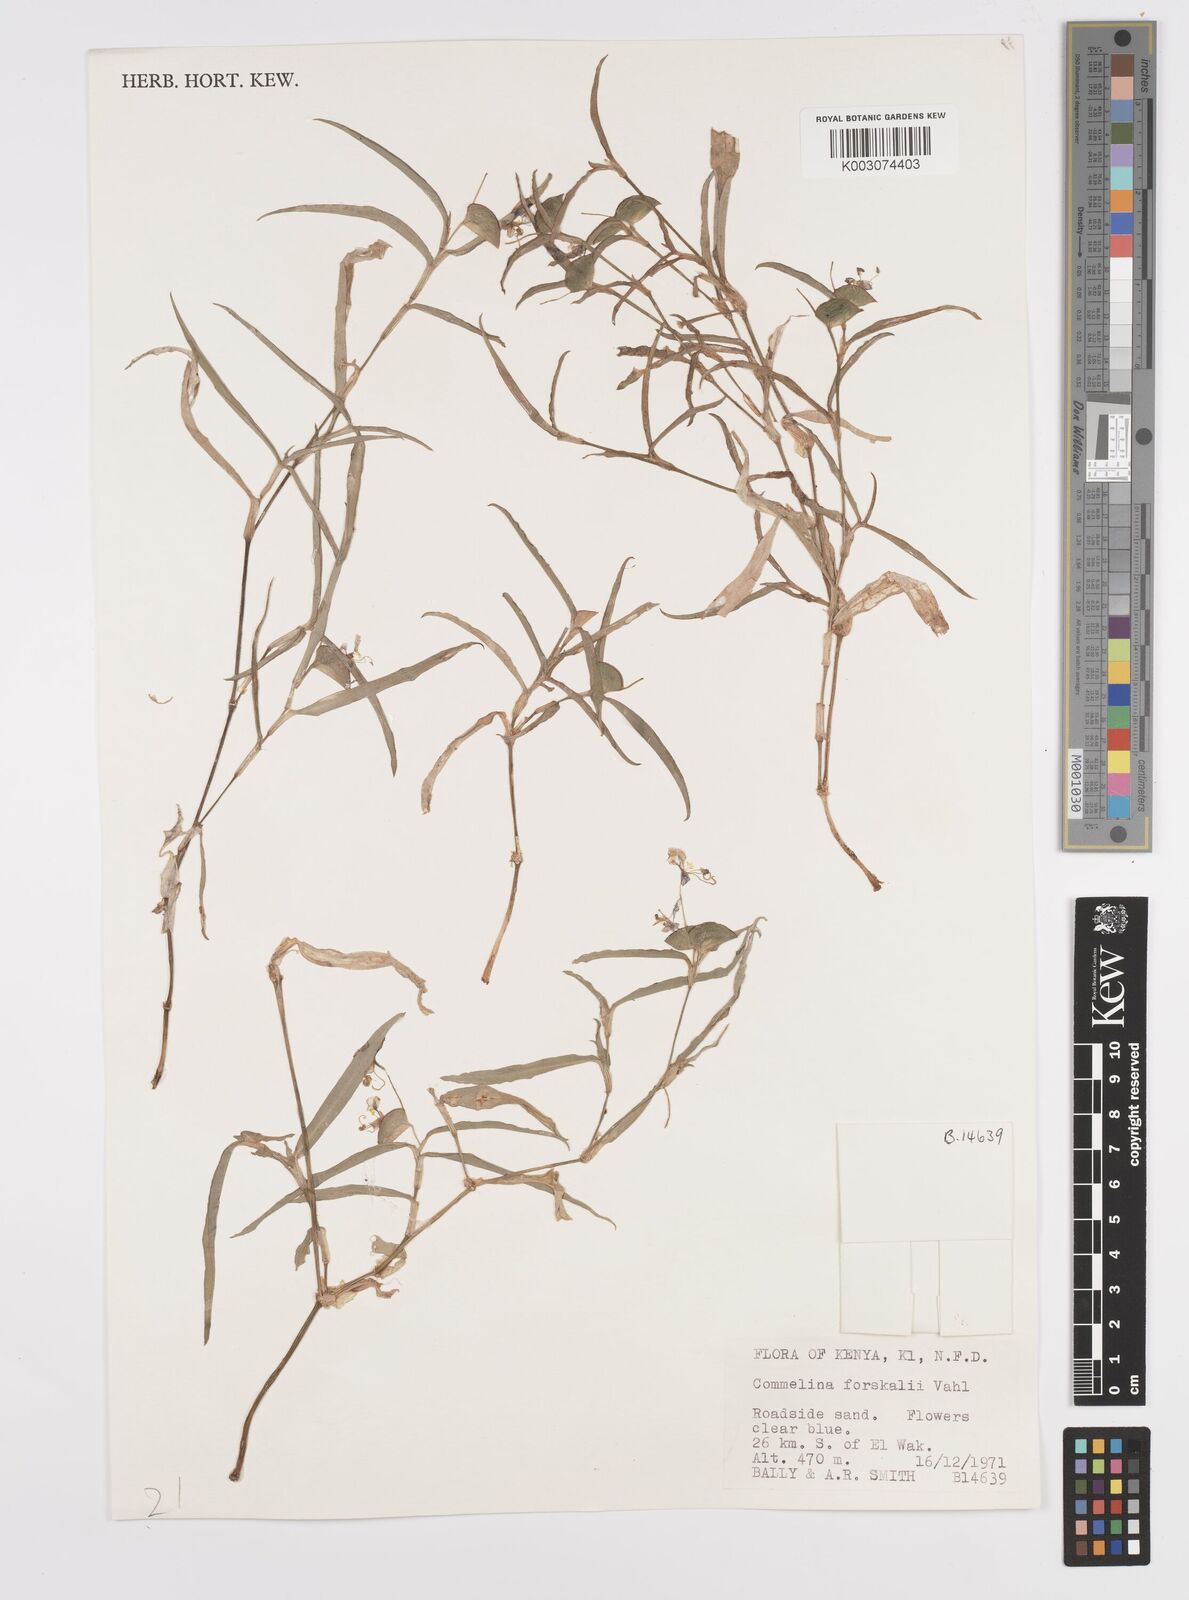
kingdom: Plantae
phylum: Tracheophyta
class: Liliopsida
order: Commelinales
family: Commelinaceae
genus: Commelina
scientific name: Commelina forskaolii
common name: Rat's ear
